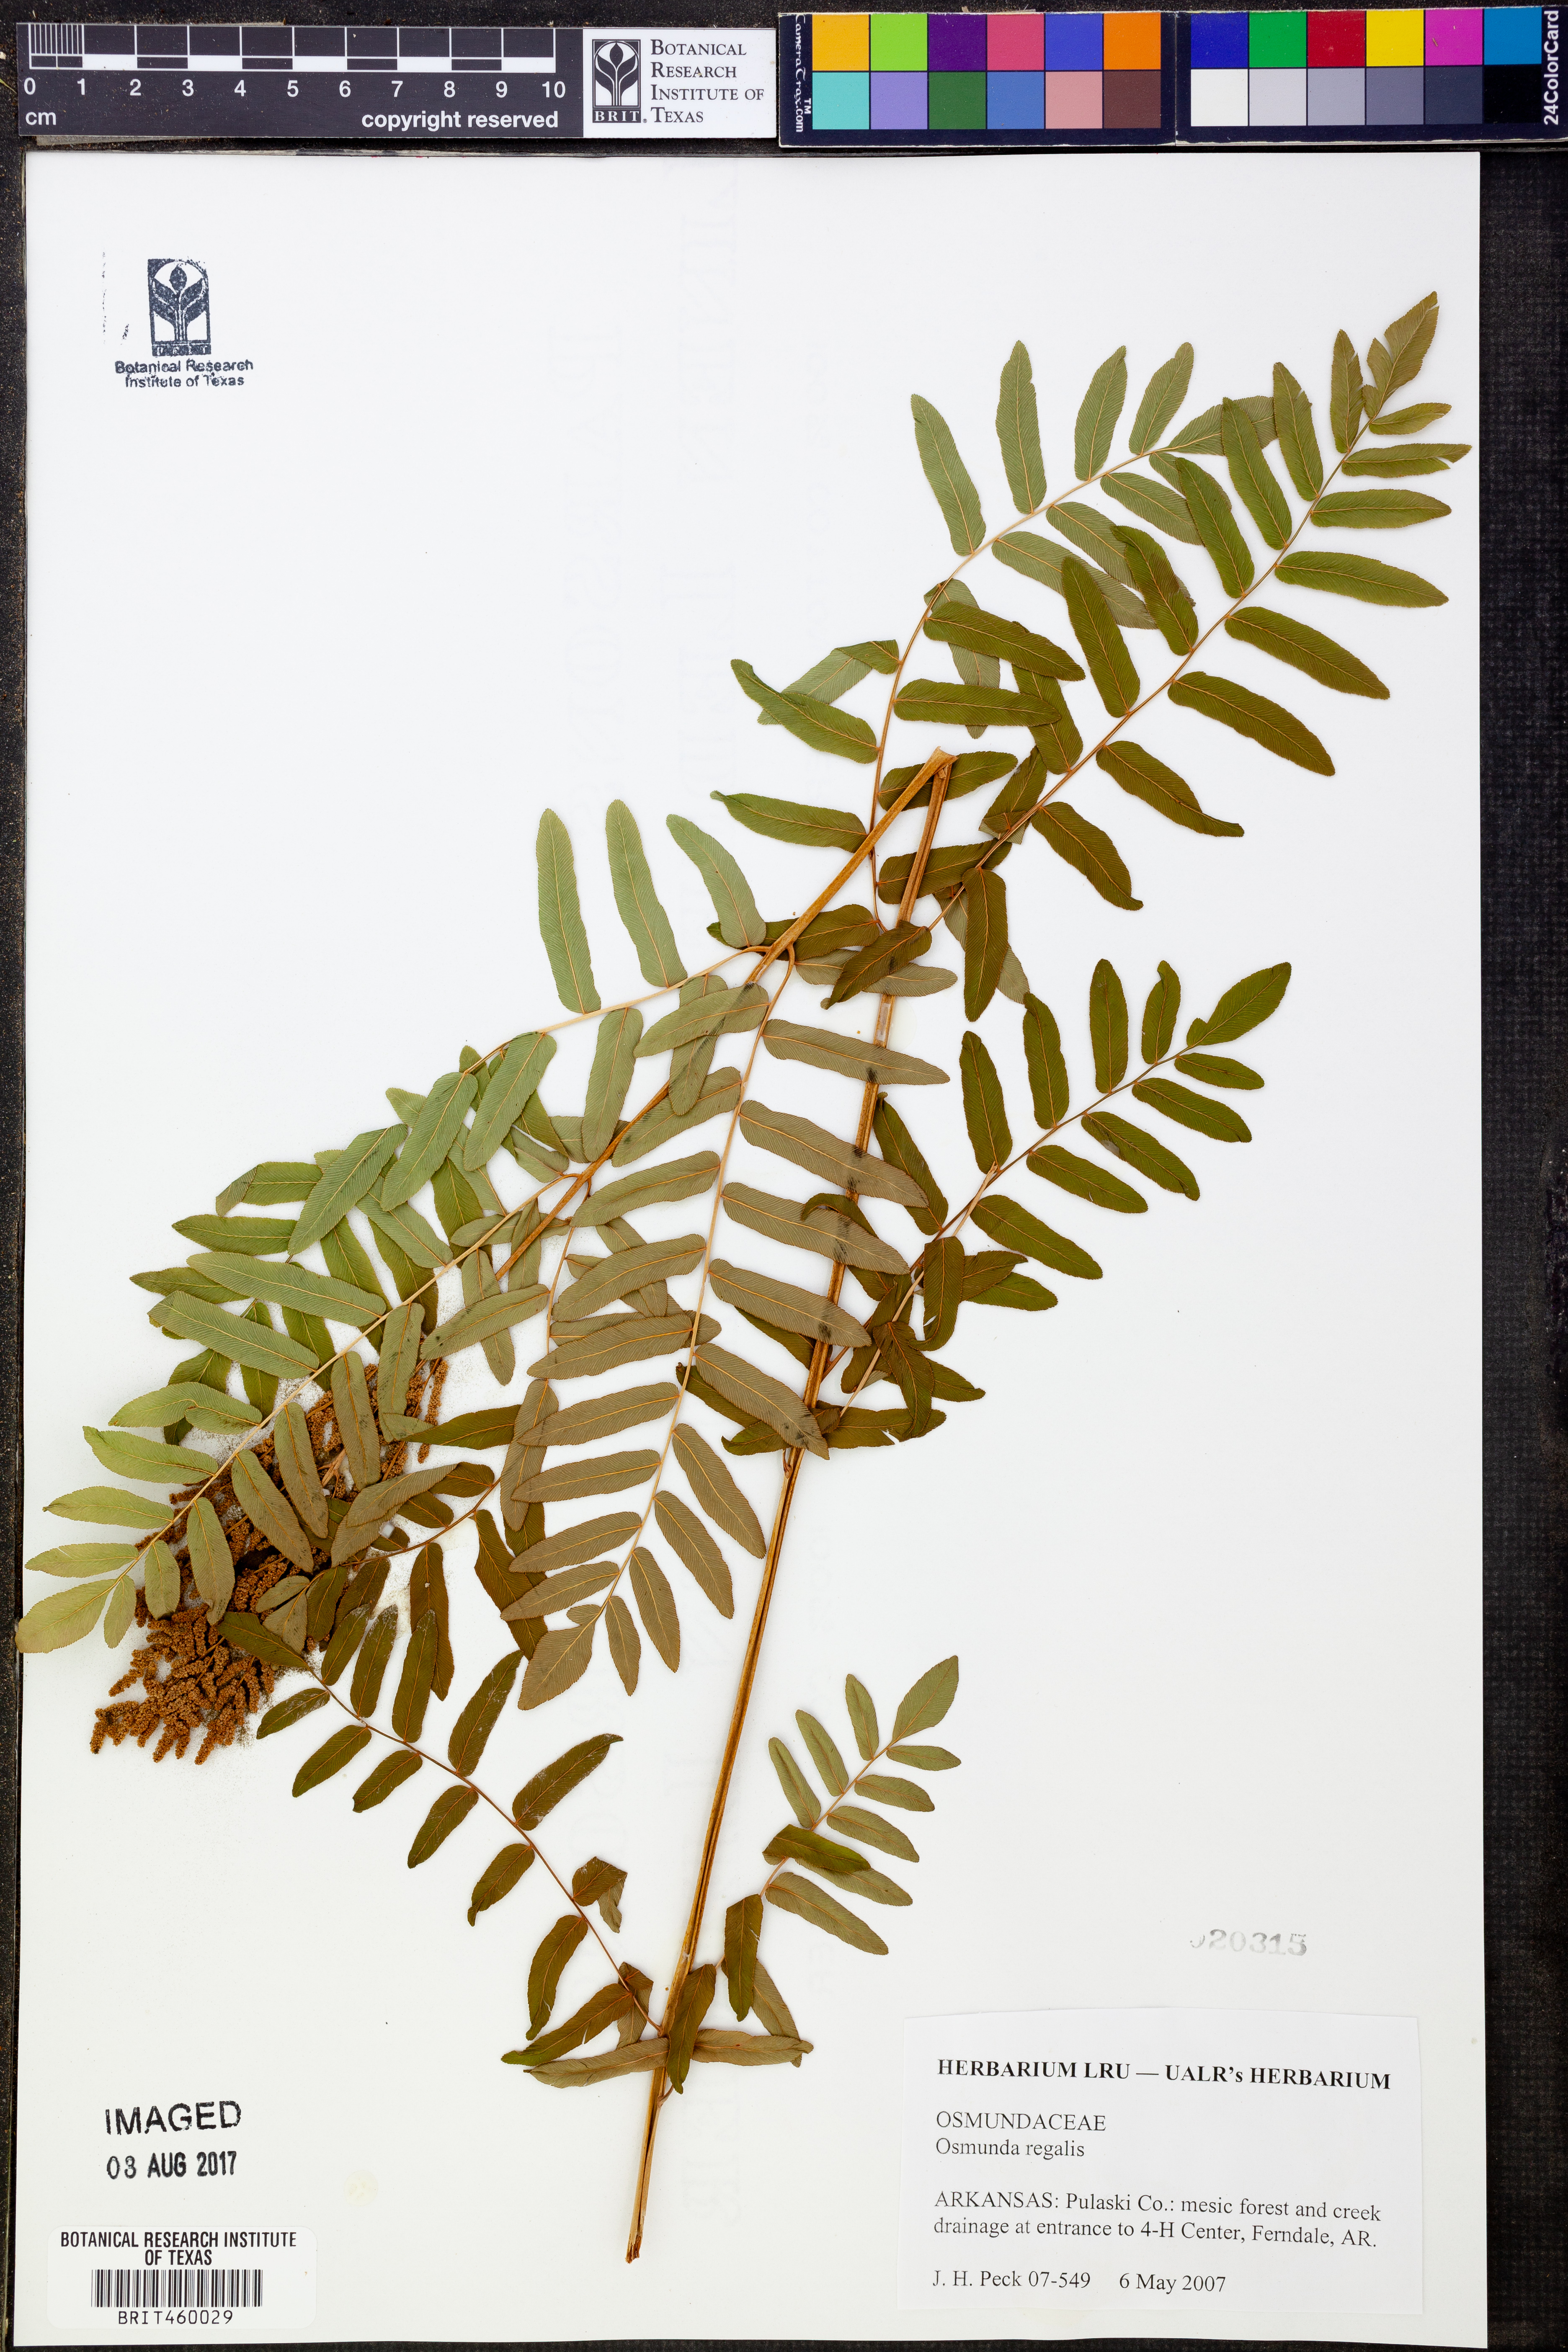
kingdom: Plantae
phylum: Tracheophyta
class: Polypodiopsida
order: Osmundales
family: Osmundaceae
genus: Osmunda
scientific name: Osmunda regalis
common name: Royal fern
